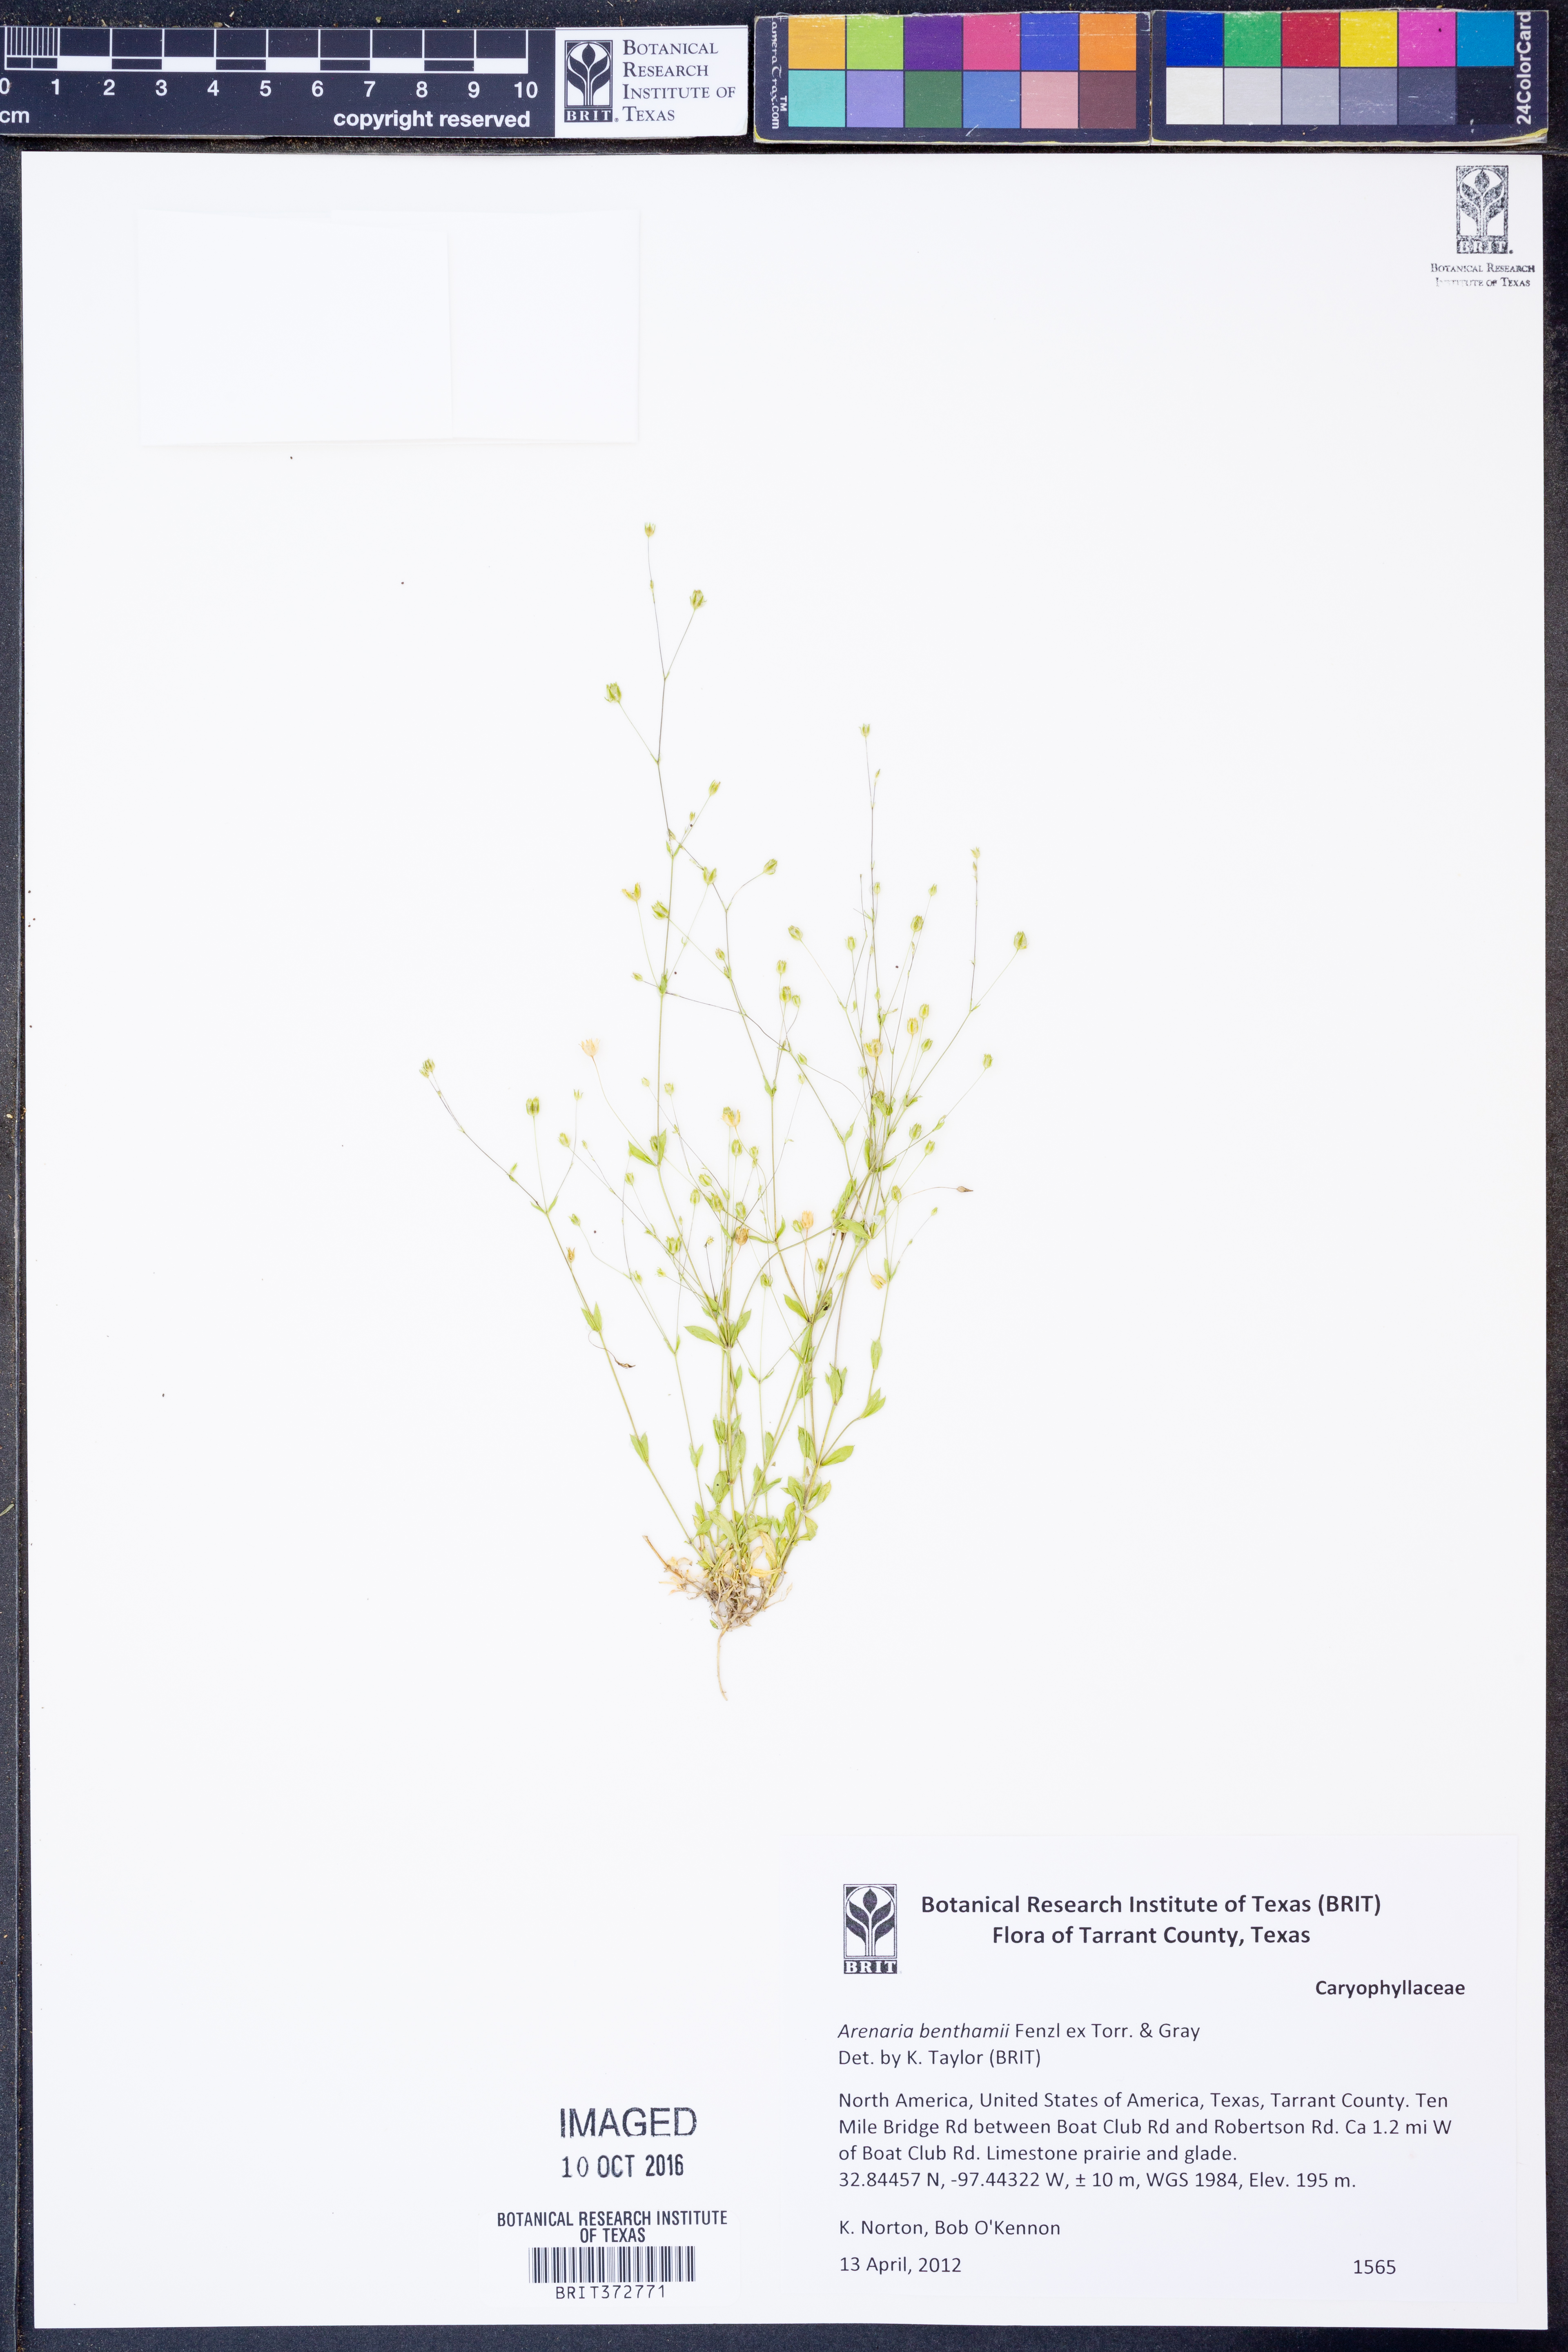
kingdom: Plantae
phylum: Tracheophyta
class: Magnoliopsida
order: Caryophyllales
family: Caryophyllaceae
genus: Arenaria
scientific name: Arenaria benthamii
